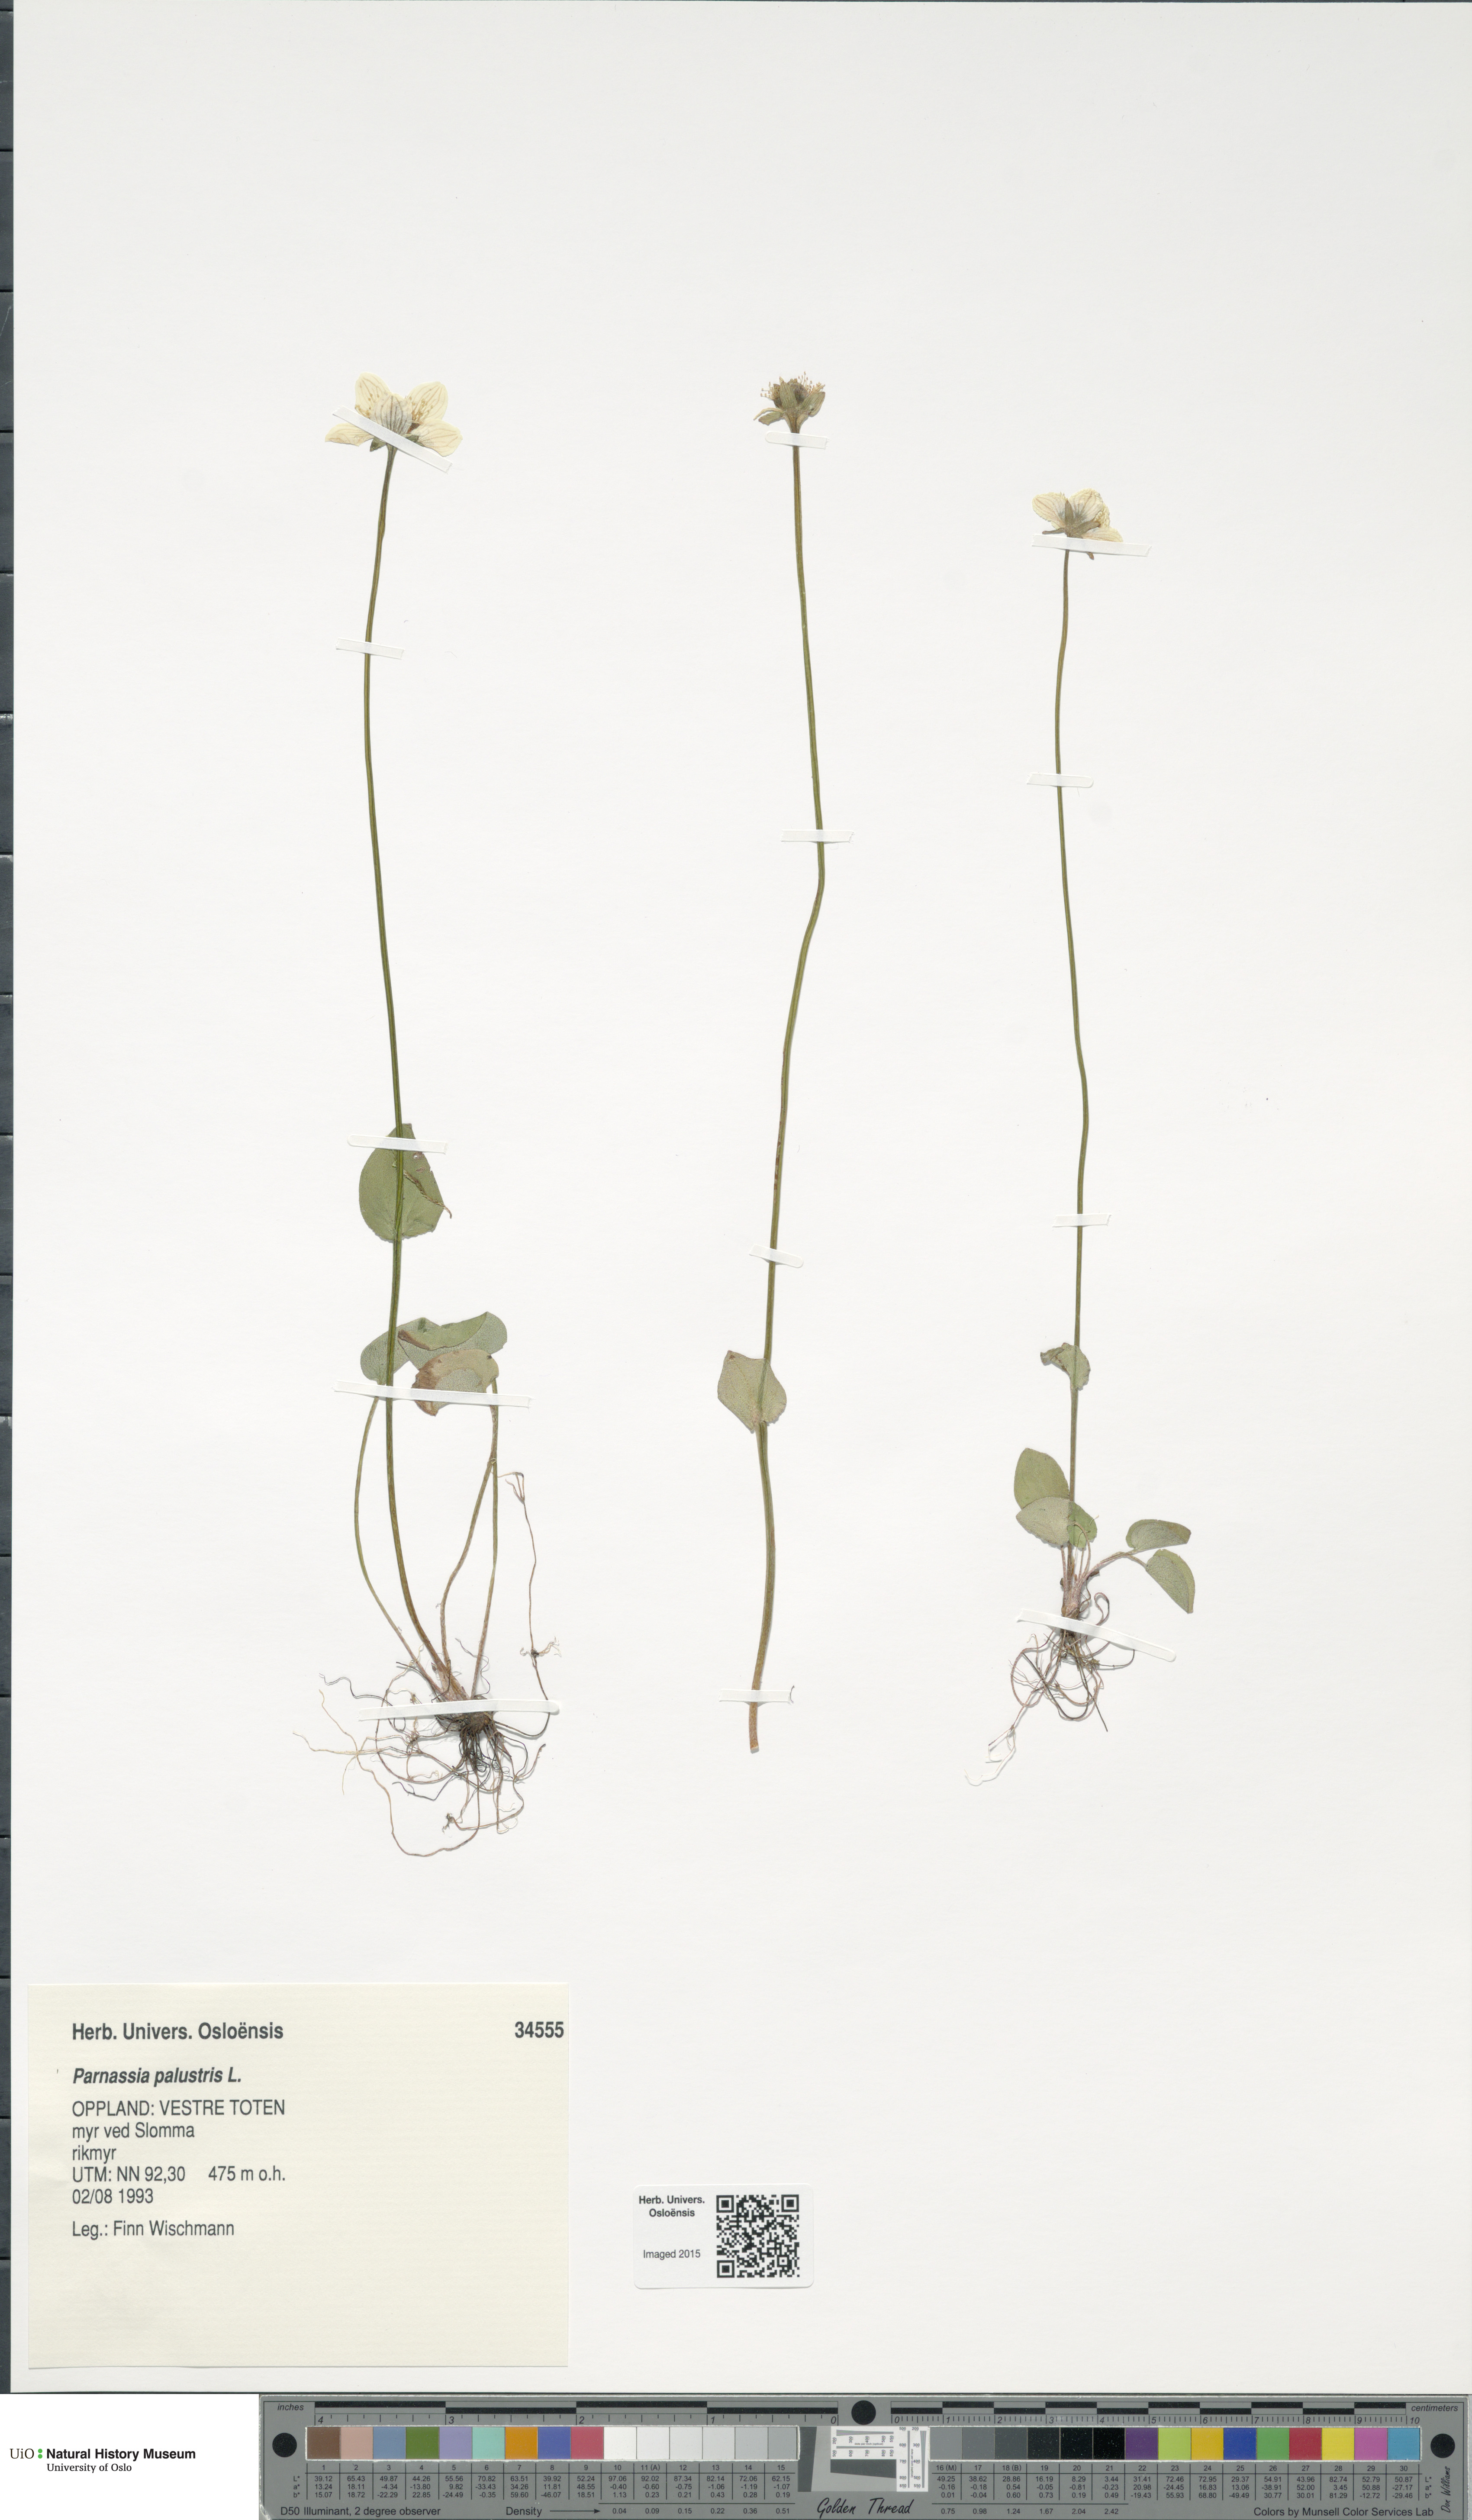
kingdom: Plantae
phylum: Tracheophyta
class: Magnoliopsida
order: Celastrales
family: Parnassiaceae
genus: Parnassia
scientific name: Parnassia palustris
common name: Grass-of-parnassus
